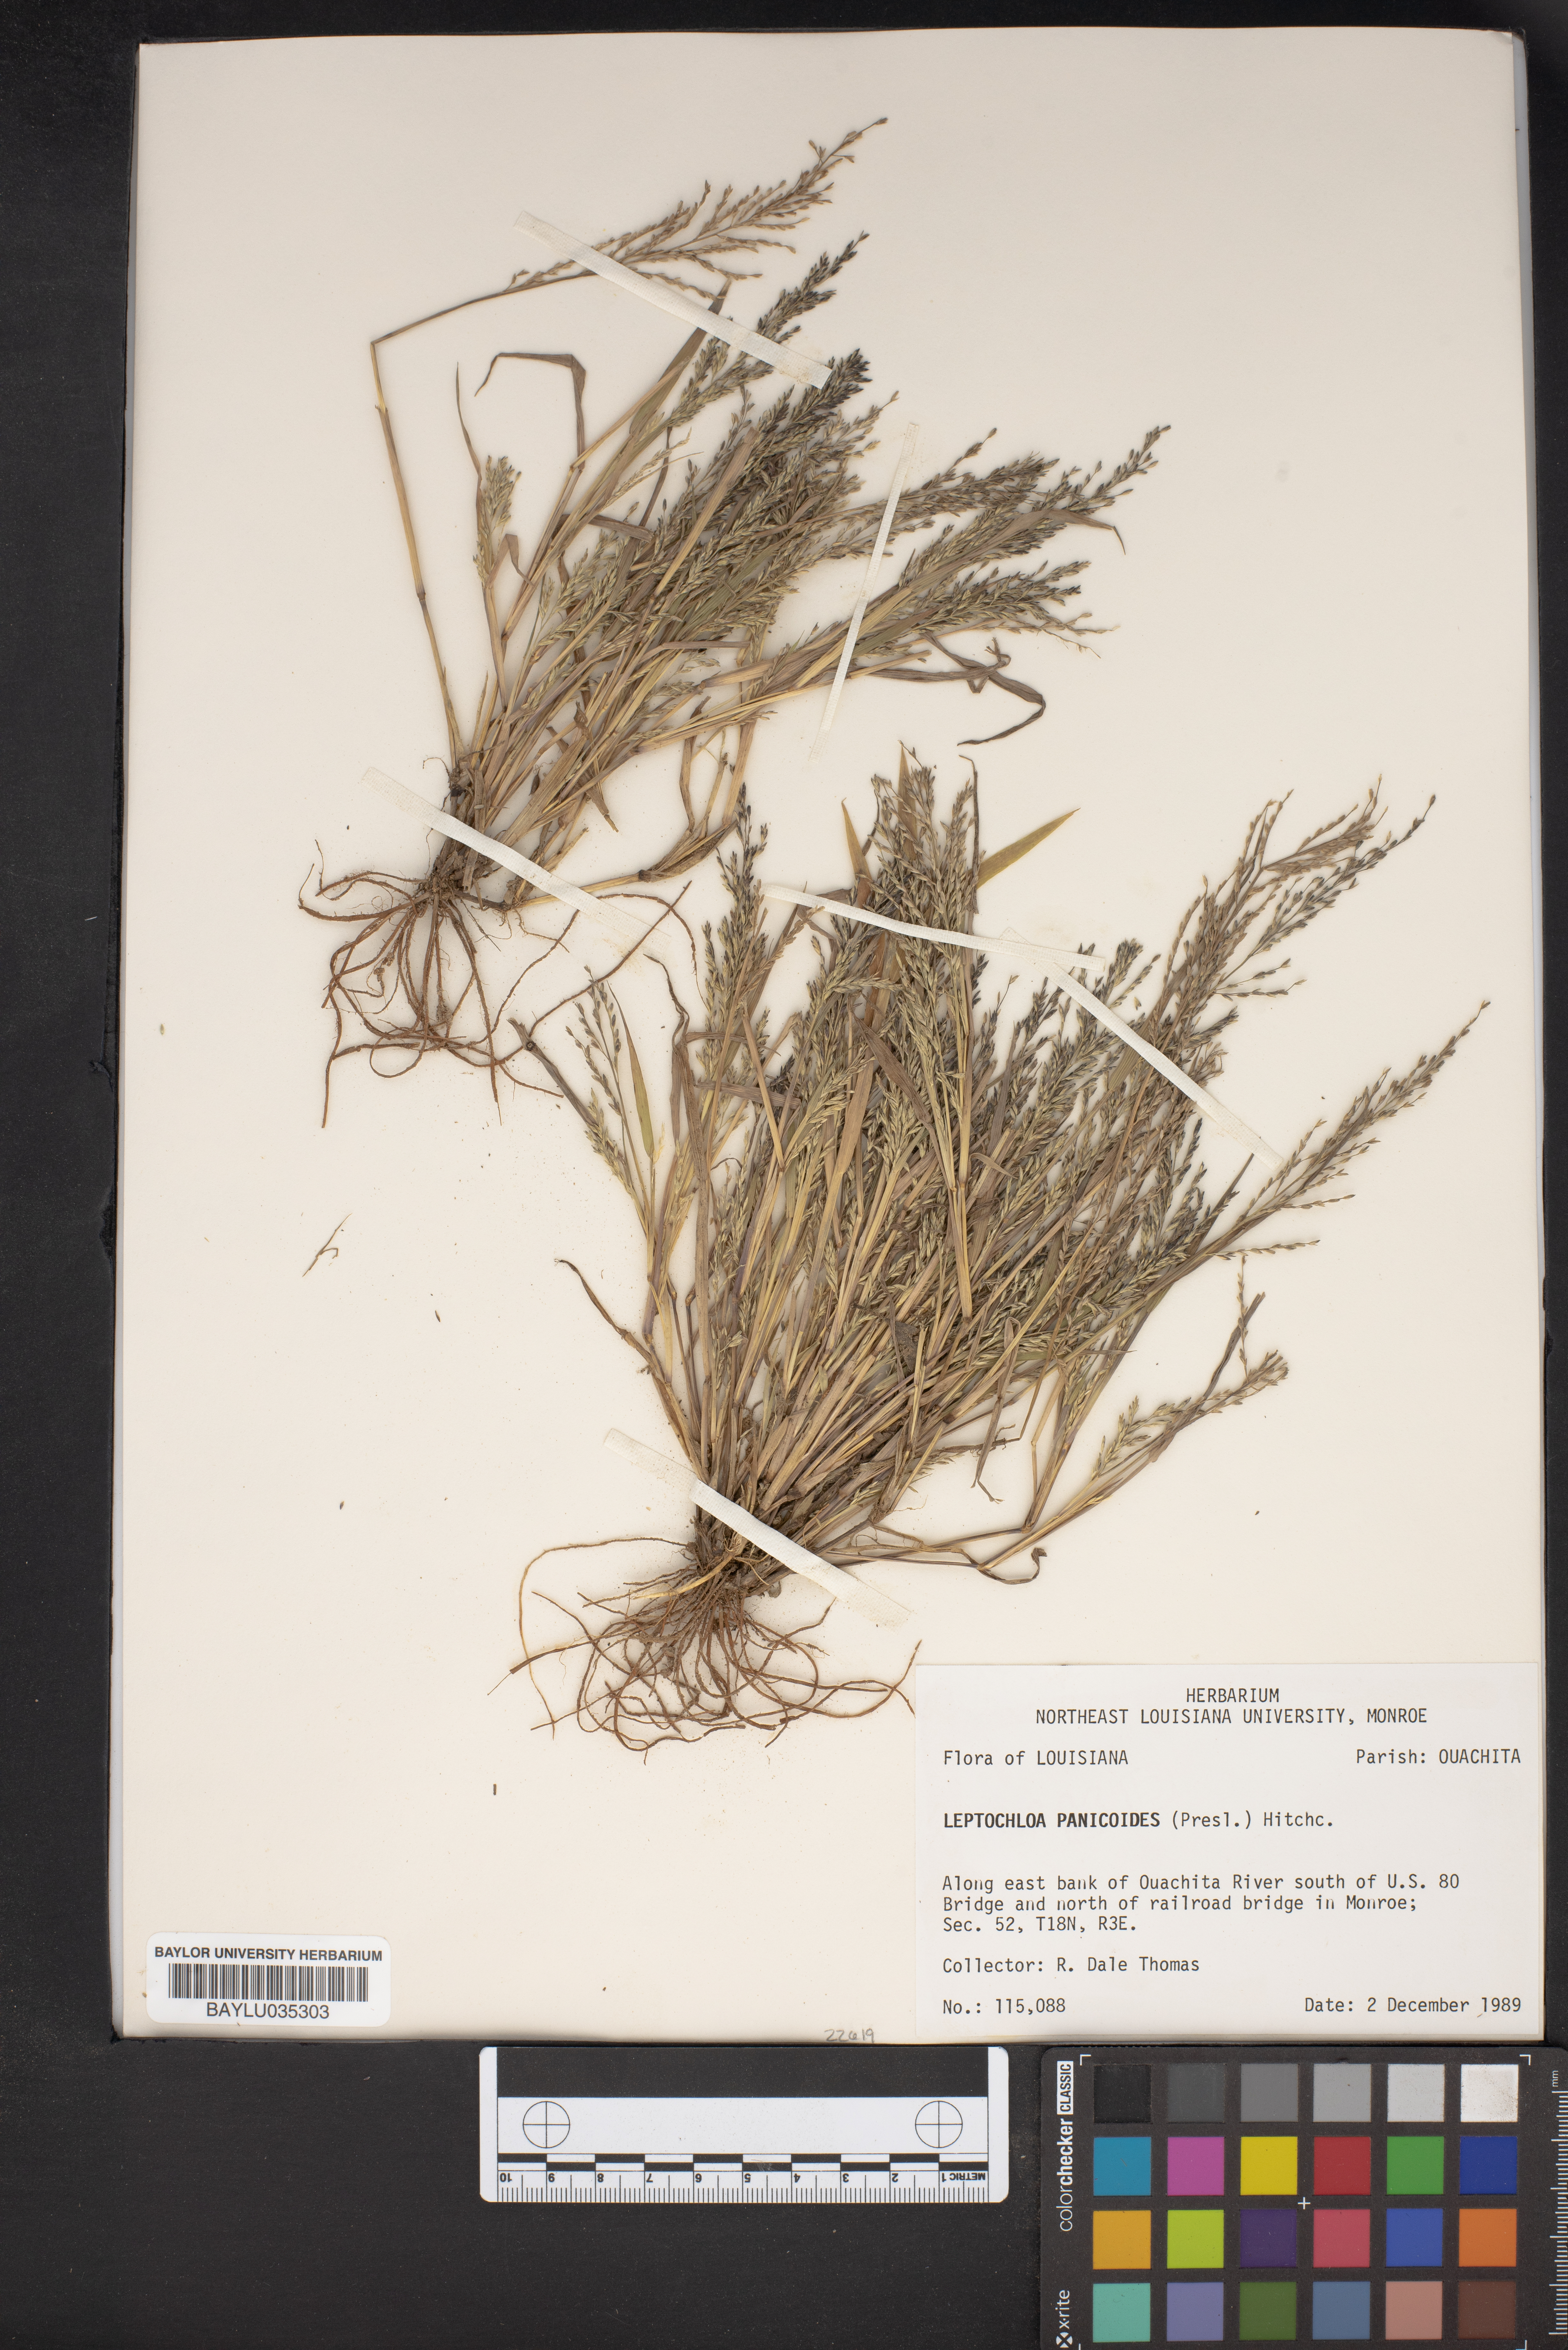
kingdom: Plantae
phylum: Tracheophyta
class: Liliopsida
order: Poales
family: Poaceae
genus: Arundinella
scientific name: Arundinella leptochloa
